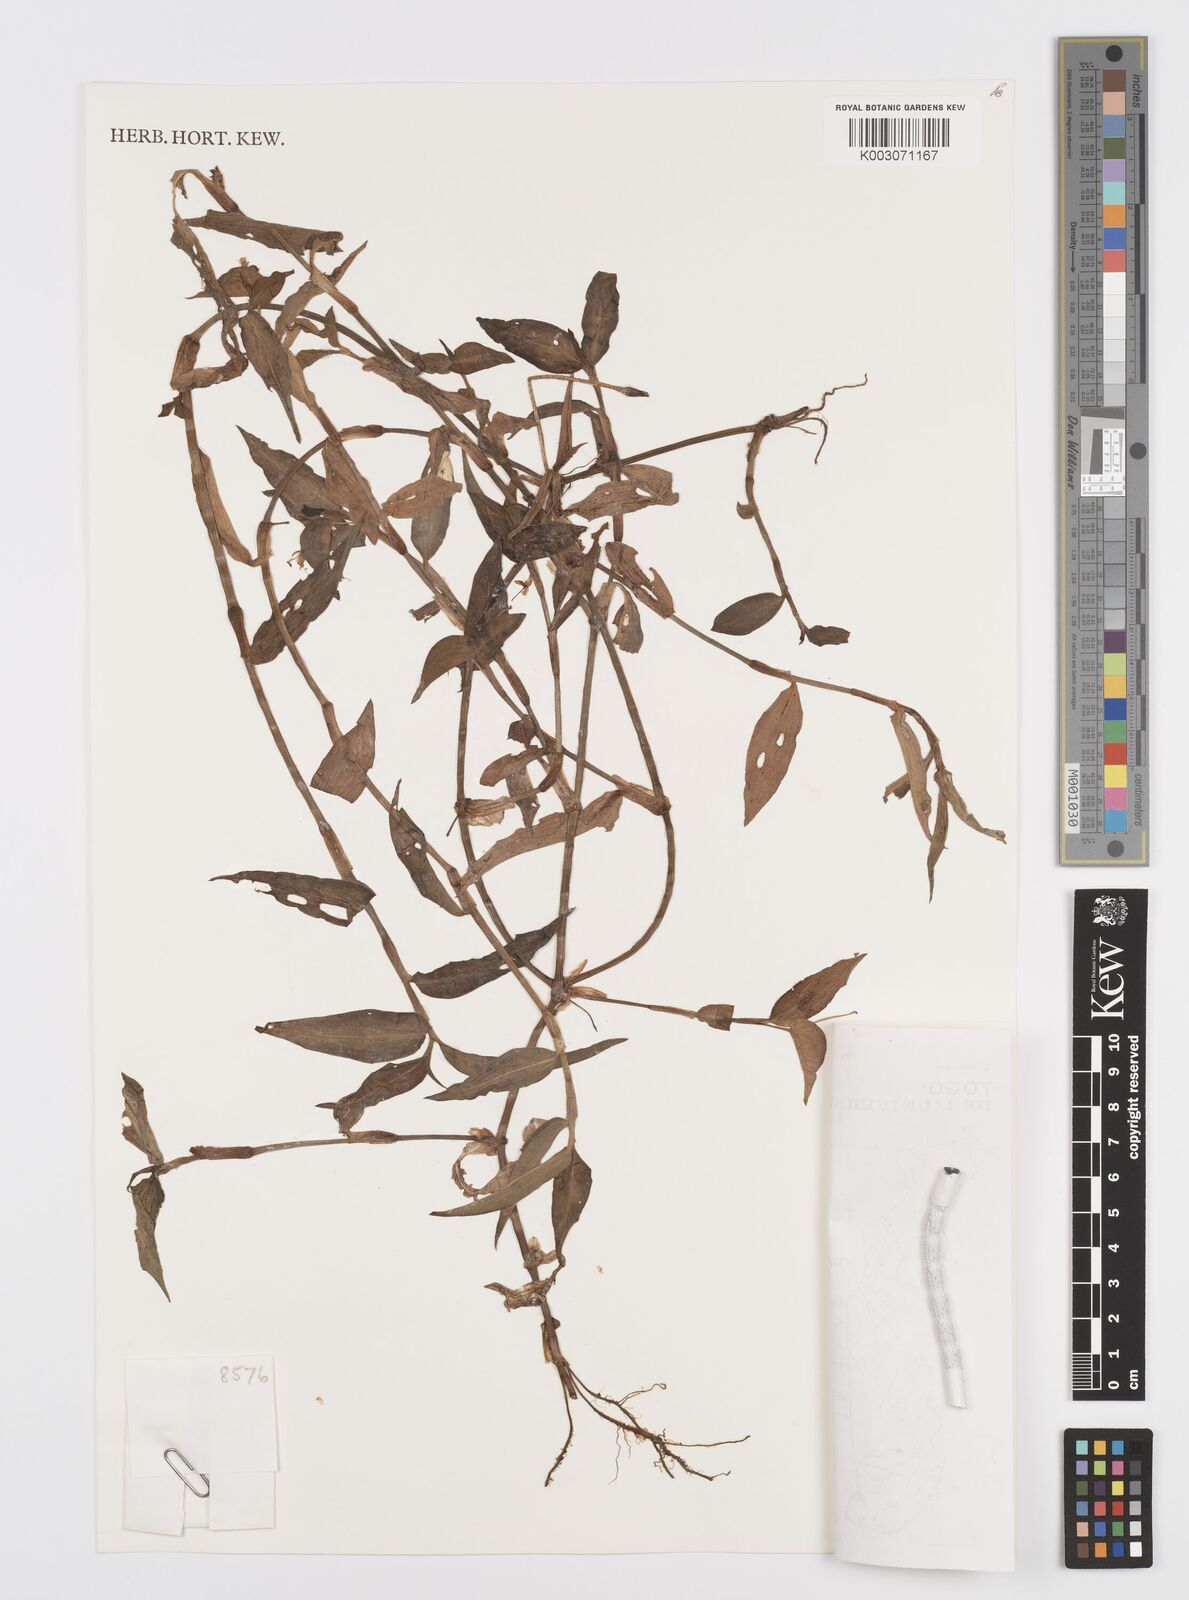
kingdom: Plantae
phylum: Tracheophyta
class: Liliopsida
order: Commelinales
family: Commelinaceae
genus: Commelina
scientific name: Commelina diffusa
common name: Climbing dayflower
